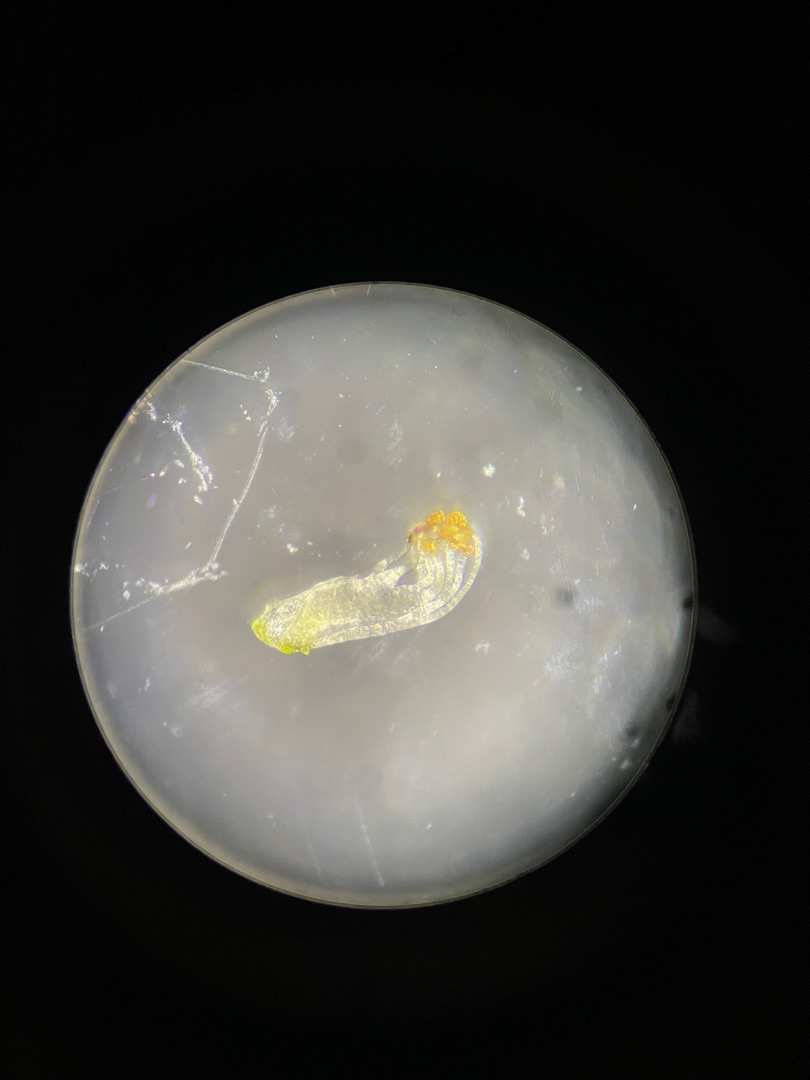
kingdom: Plantae
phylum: Tracheophyta
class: Magnoliopsida
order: Fabales
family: Fabaceae
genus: Vicia
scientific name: Vicia hirsuta
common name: Tofrøet vikke
